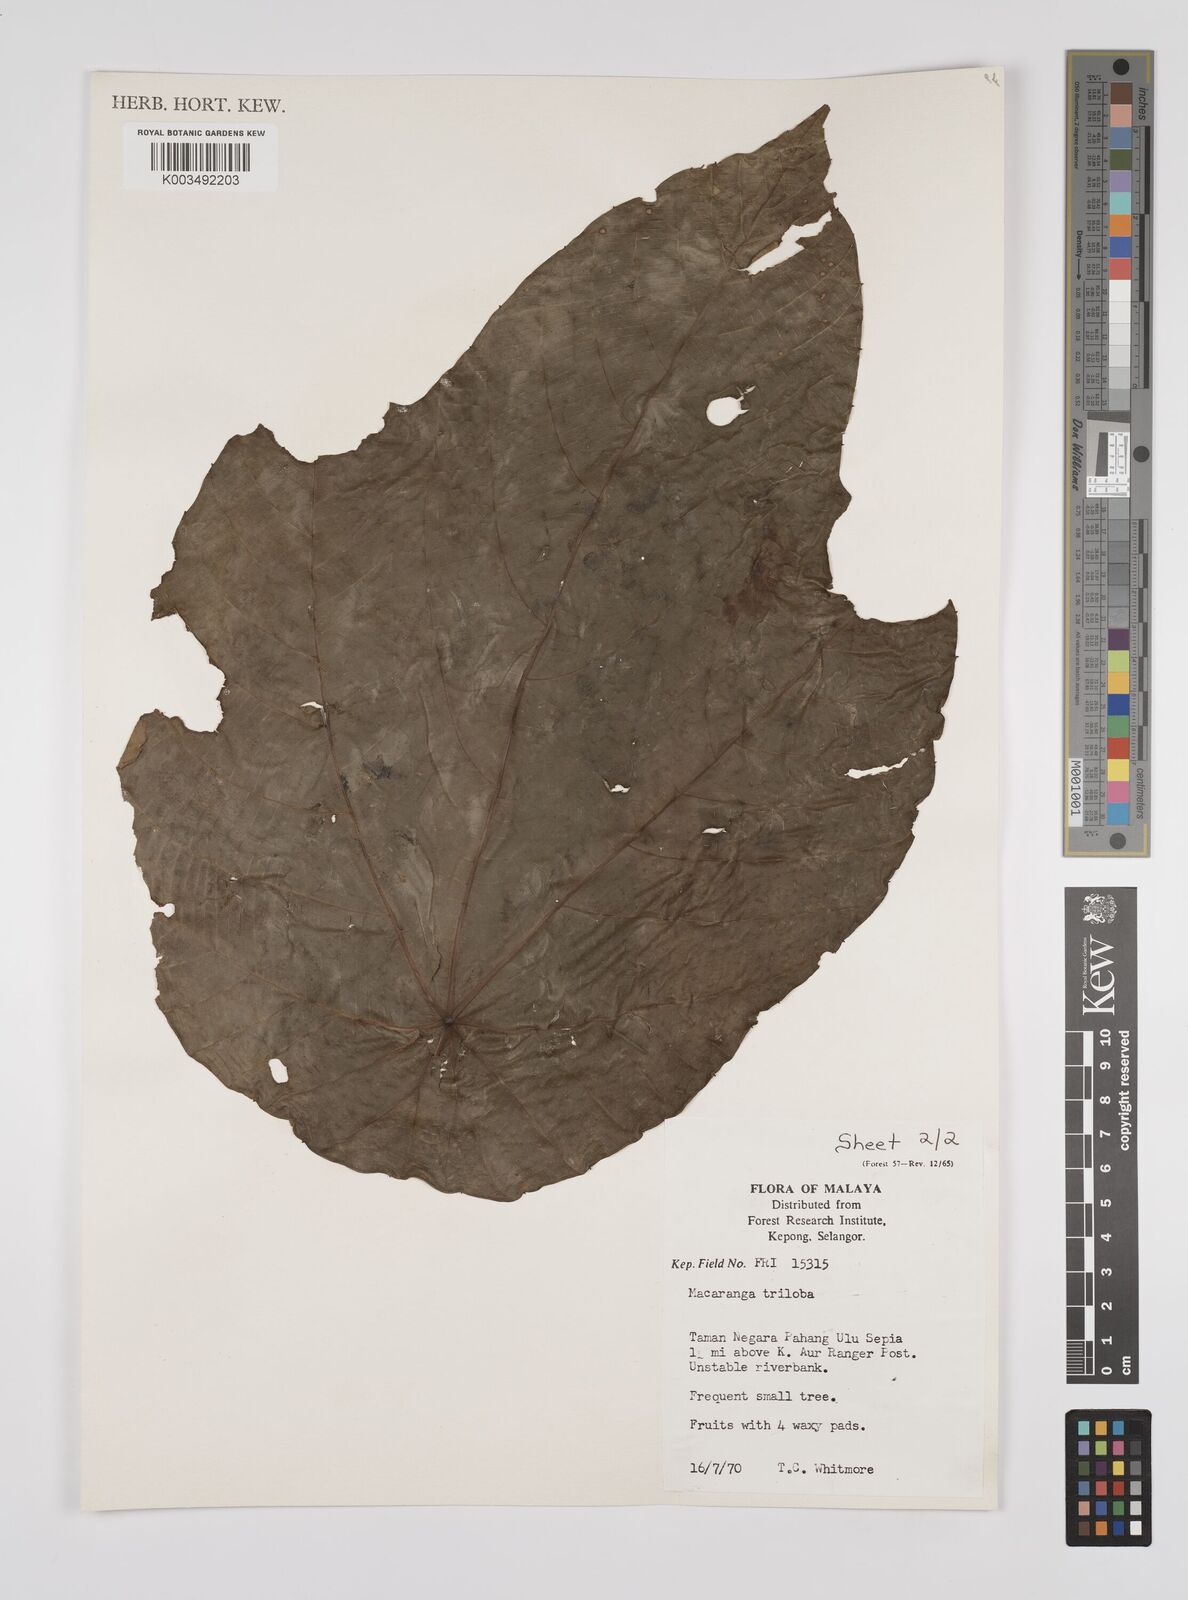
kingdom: Plantae
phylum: Tracheophyta
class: Magnoliopsida
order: Malpighiales
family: Euphorbiaceae
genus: Macaranga
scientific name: Macaranga triloba
